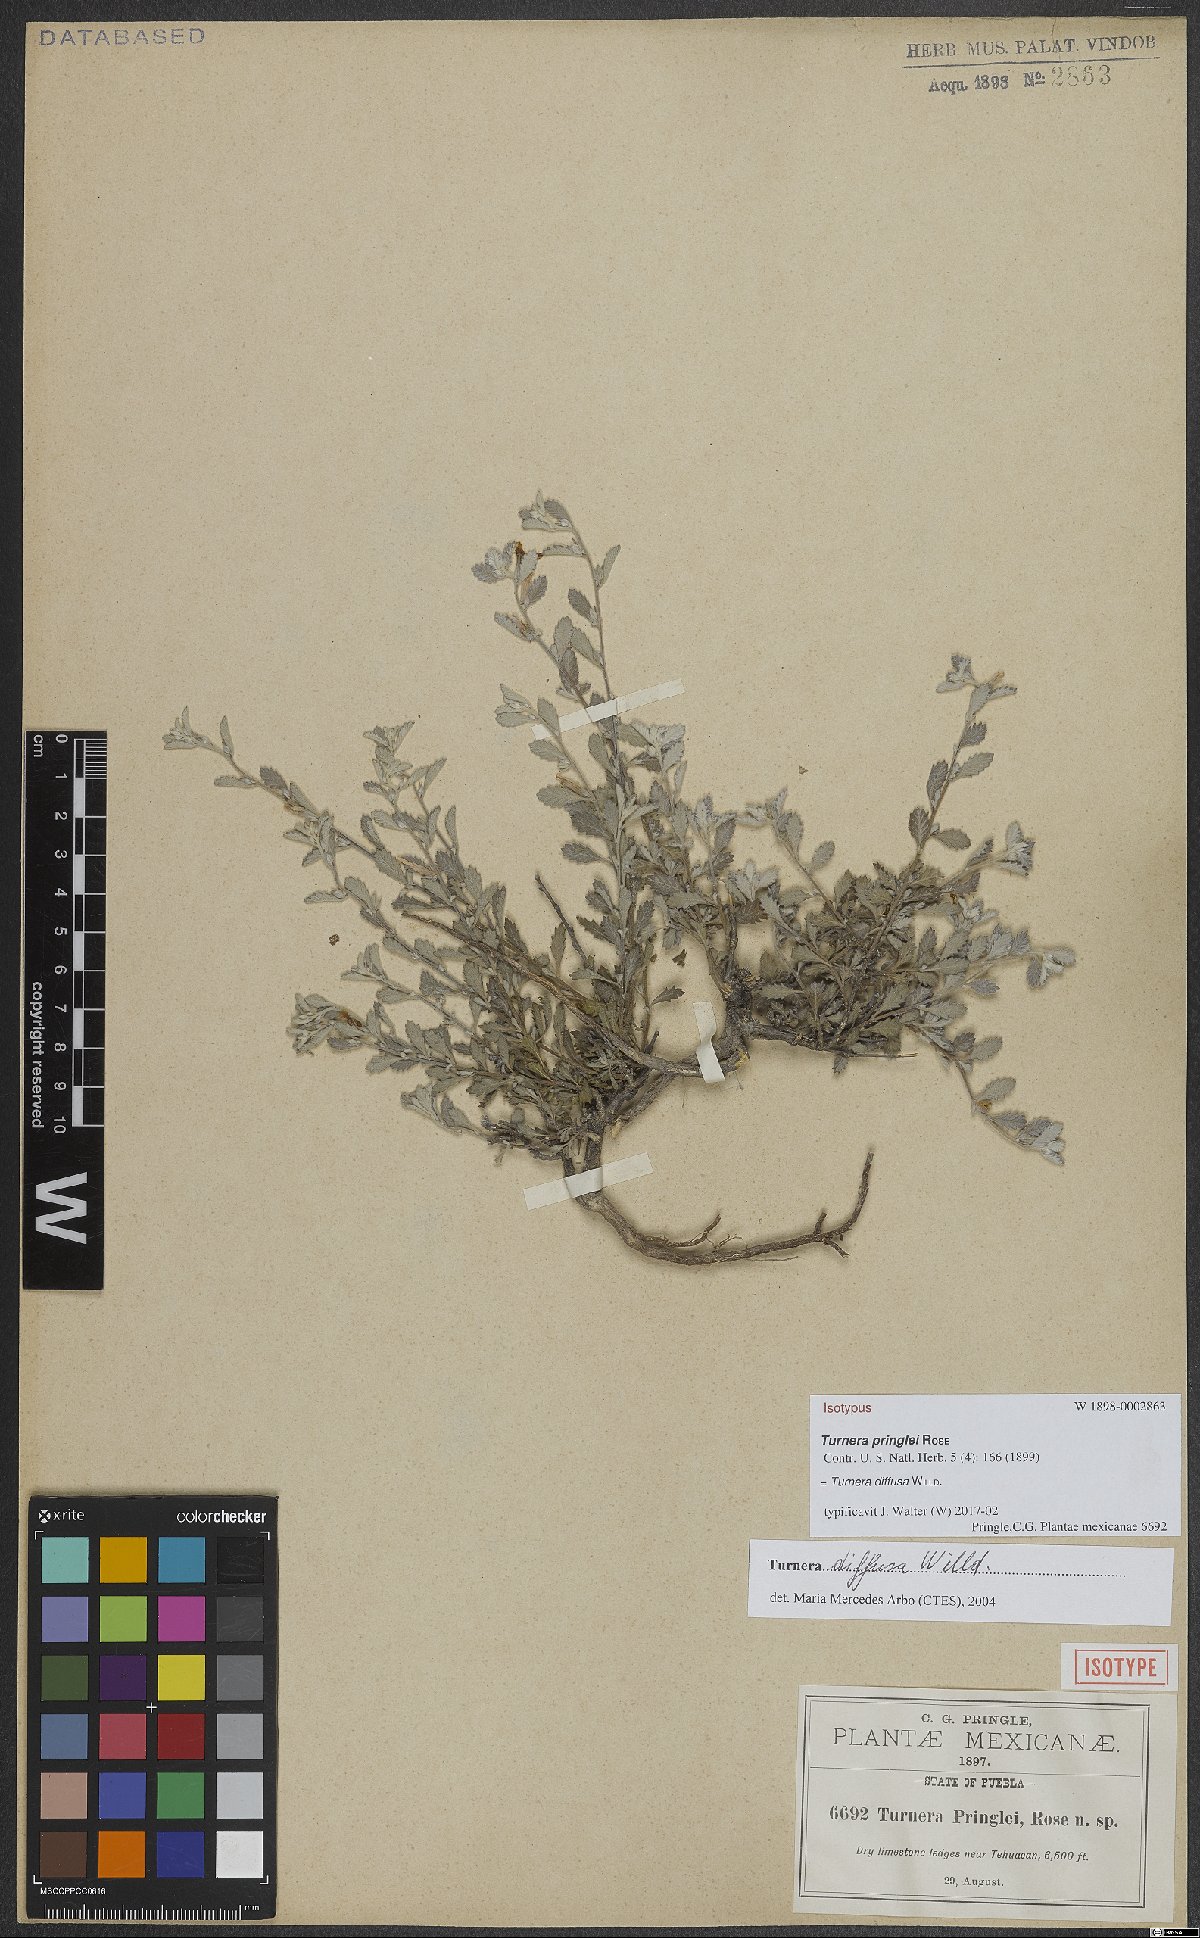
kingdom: Plantae
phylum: Tracheophyta
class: Magnoliopsida
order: Malpighiales
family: Turneraceae
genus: Turnera
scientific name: Turnera diffusa
